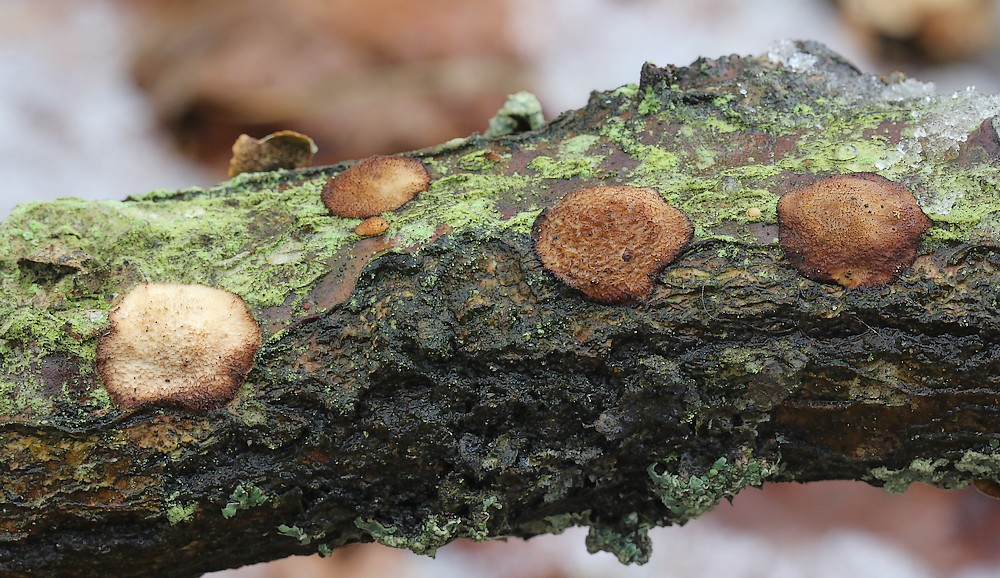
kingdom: Fungi
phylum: Basidiomycota
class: Agaricomycetes
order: Polyporales
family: Polyporaceae
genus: Szczepkamyces
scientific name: Szczepkamyces campestris
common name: hasselporesvamp
